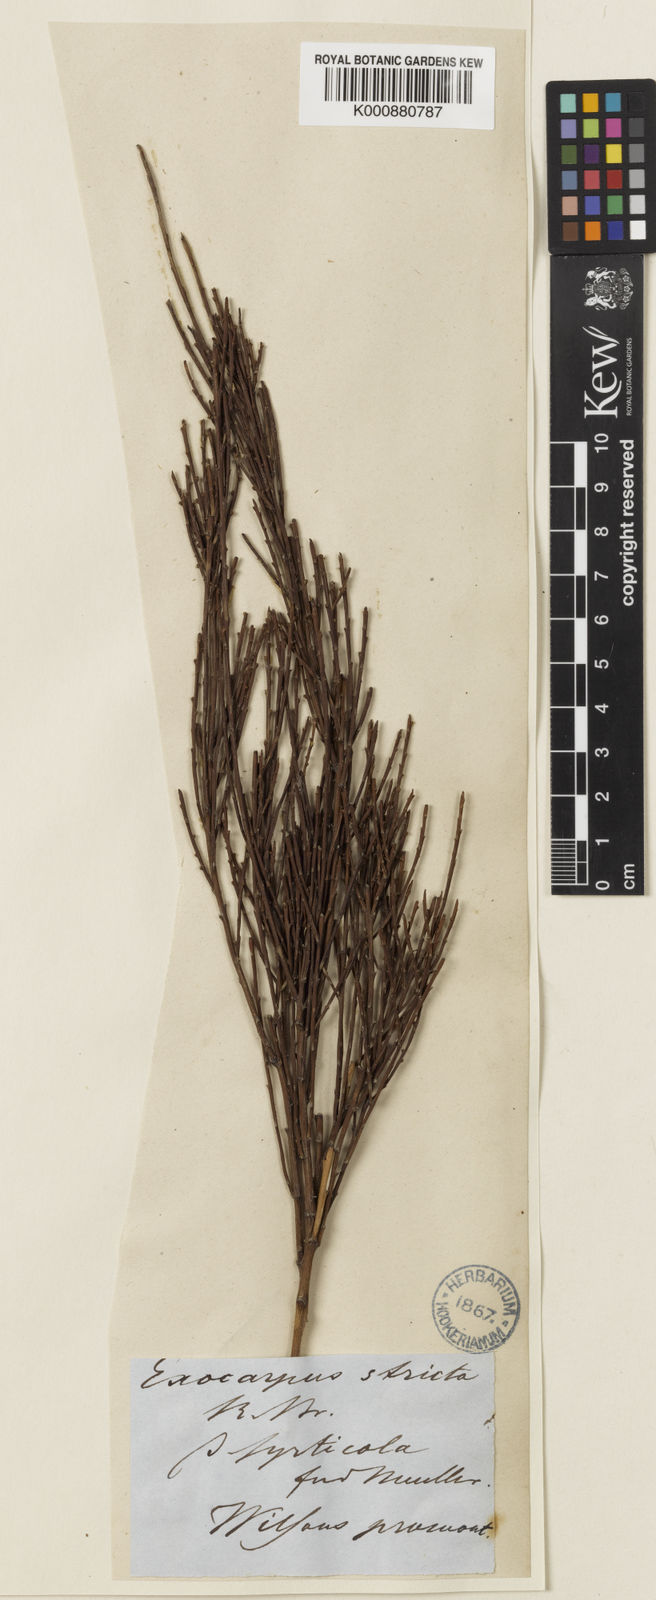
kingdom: Plantae
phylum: Tracheophyta
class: Magnoliopsida
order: Santalales
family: Santalaceae
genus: Exocarpos
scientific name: Exocarpos syrticola
